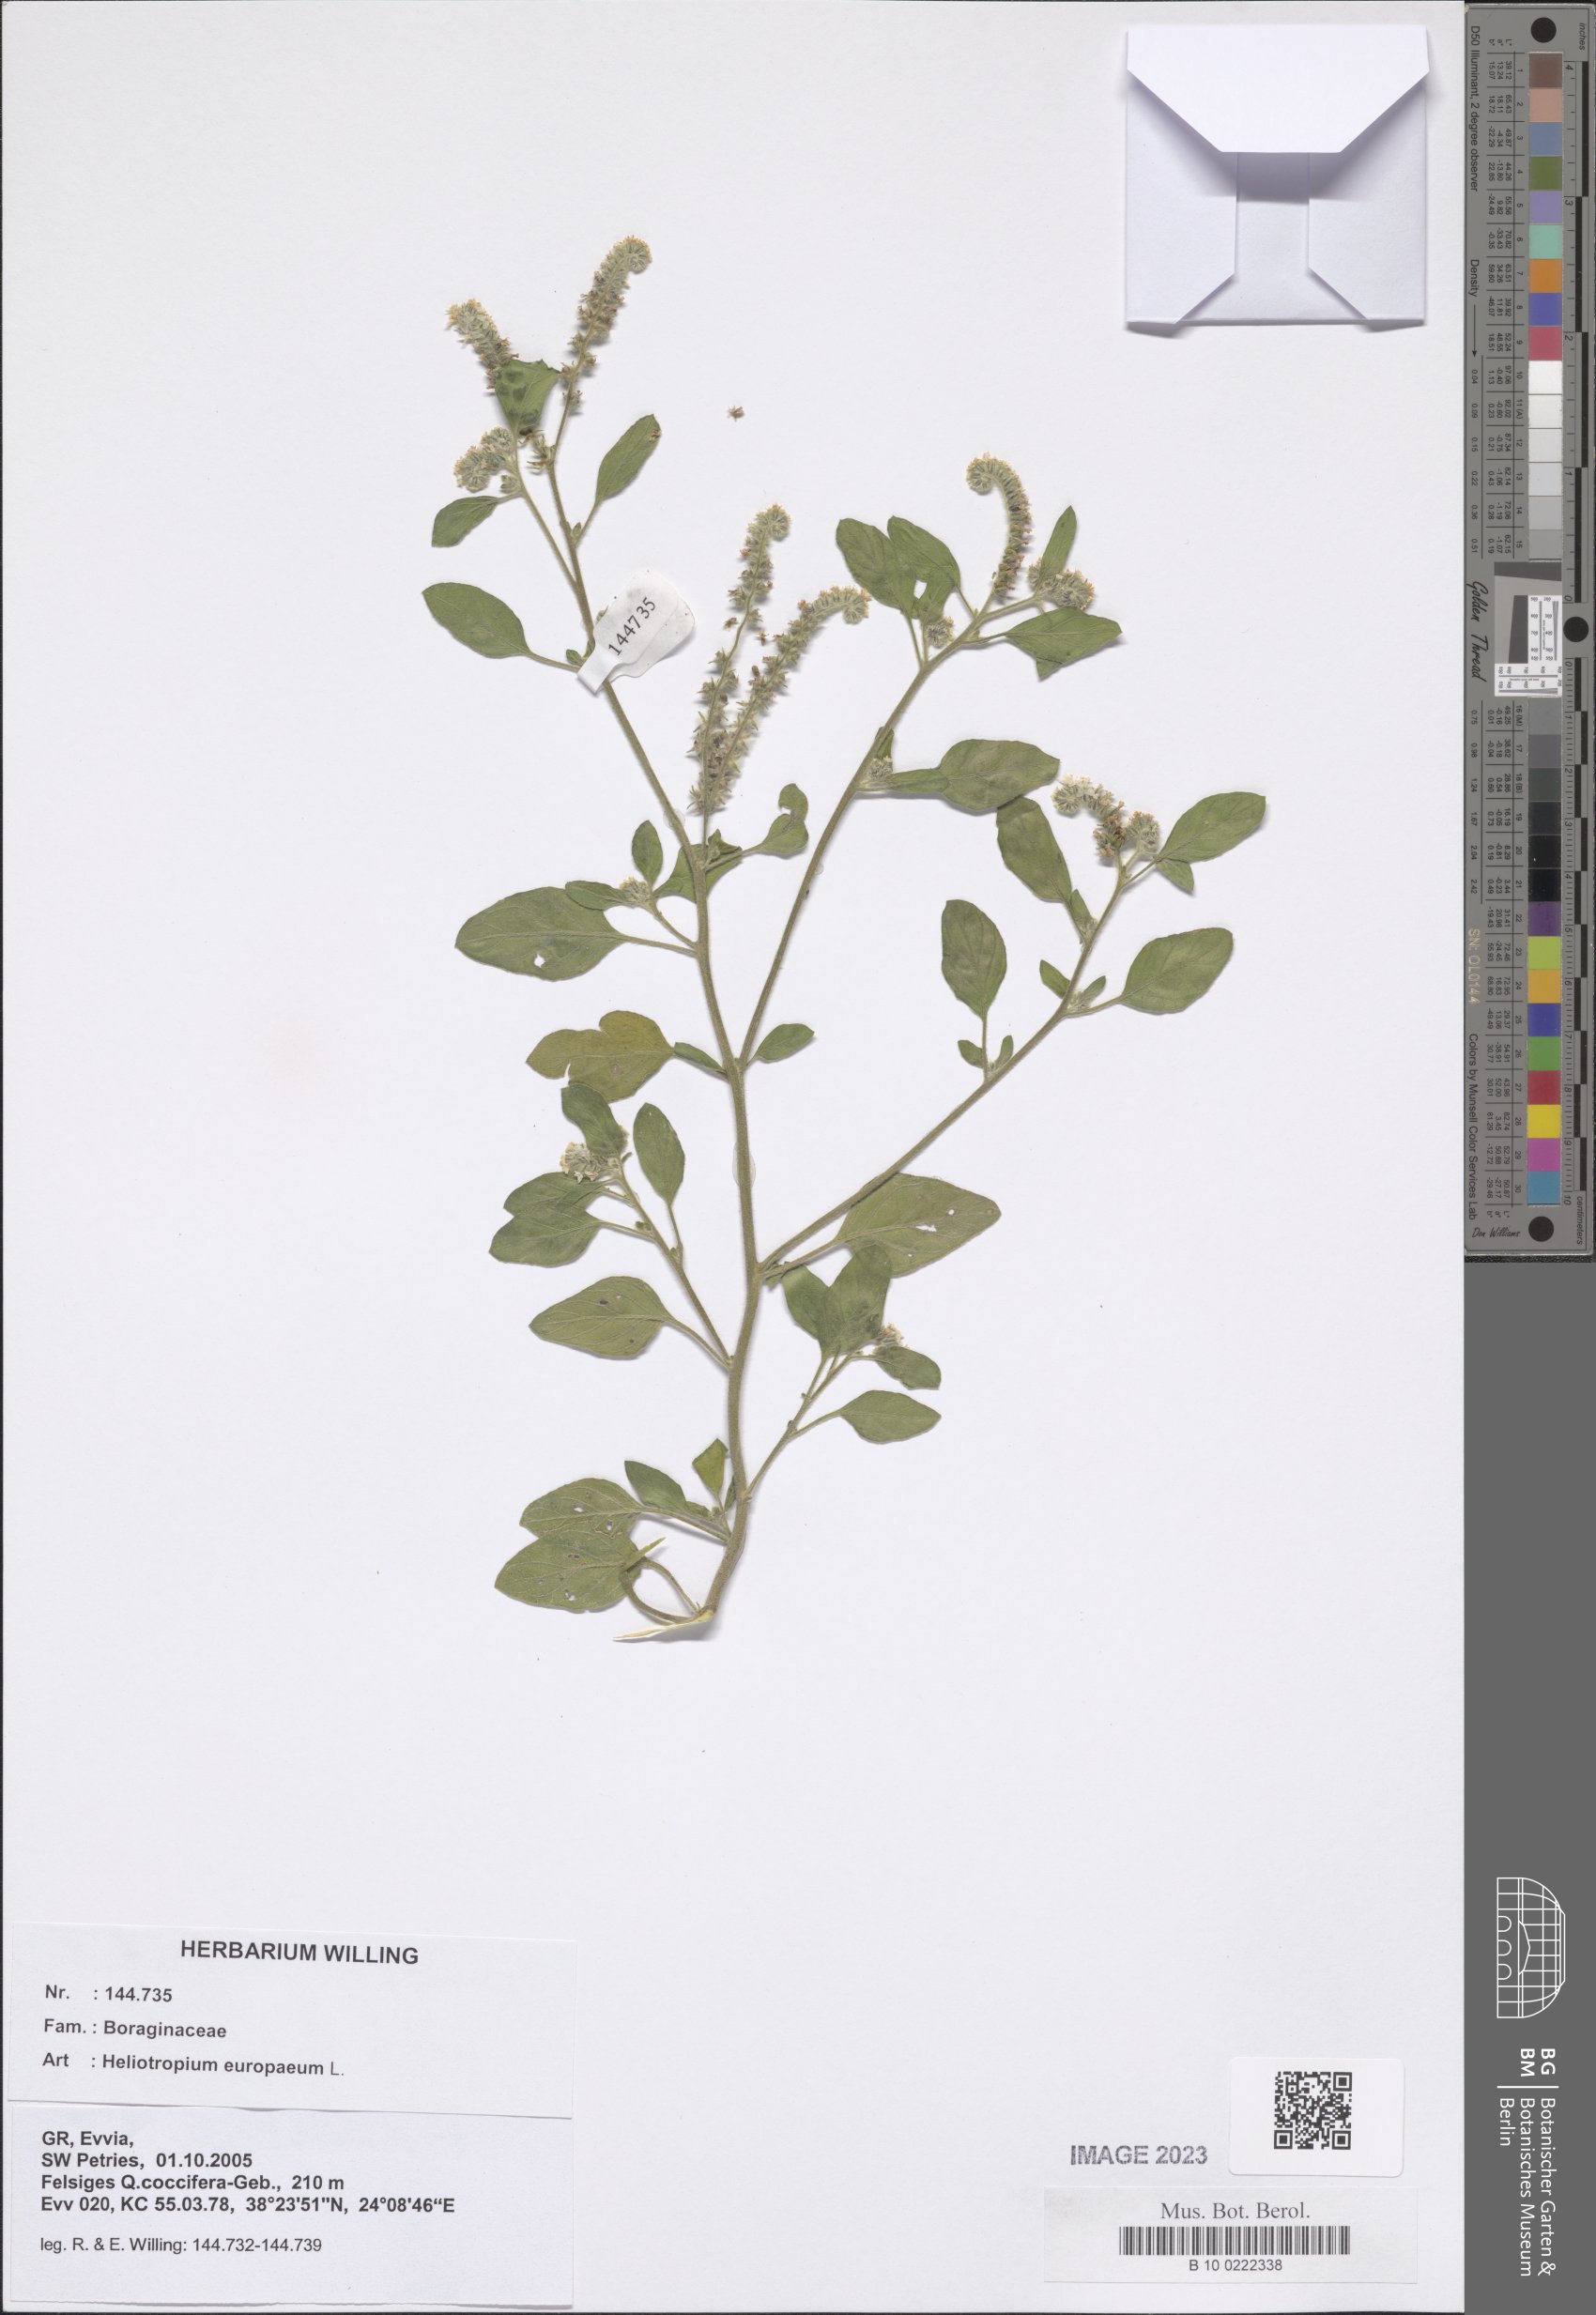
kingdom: Plantae
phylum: Tracheophyta
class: Magnoliopsida
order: Boraginales
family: Heliotropiaceae
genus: Heliotropium
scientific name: Heliotropium europaeum
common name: European heliotrope
